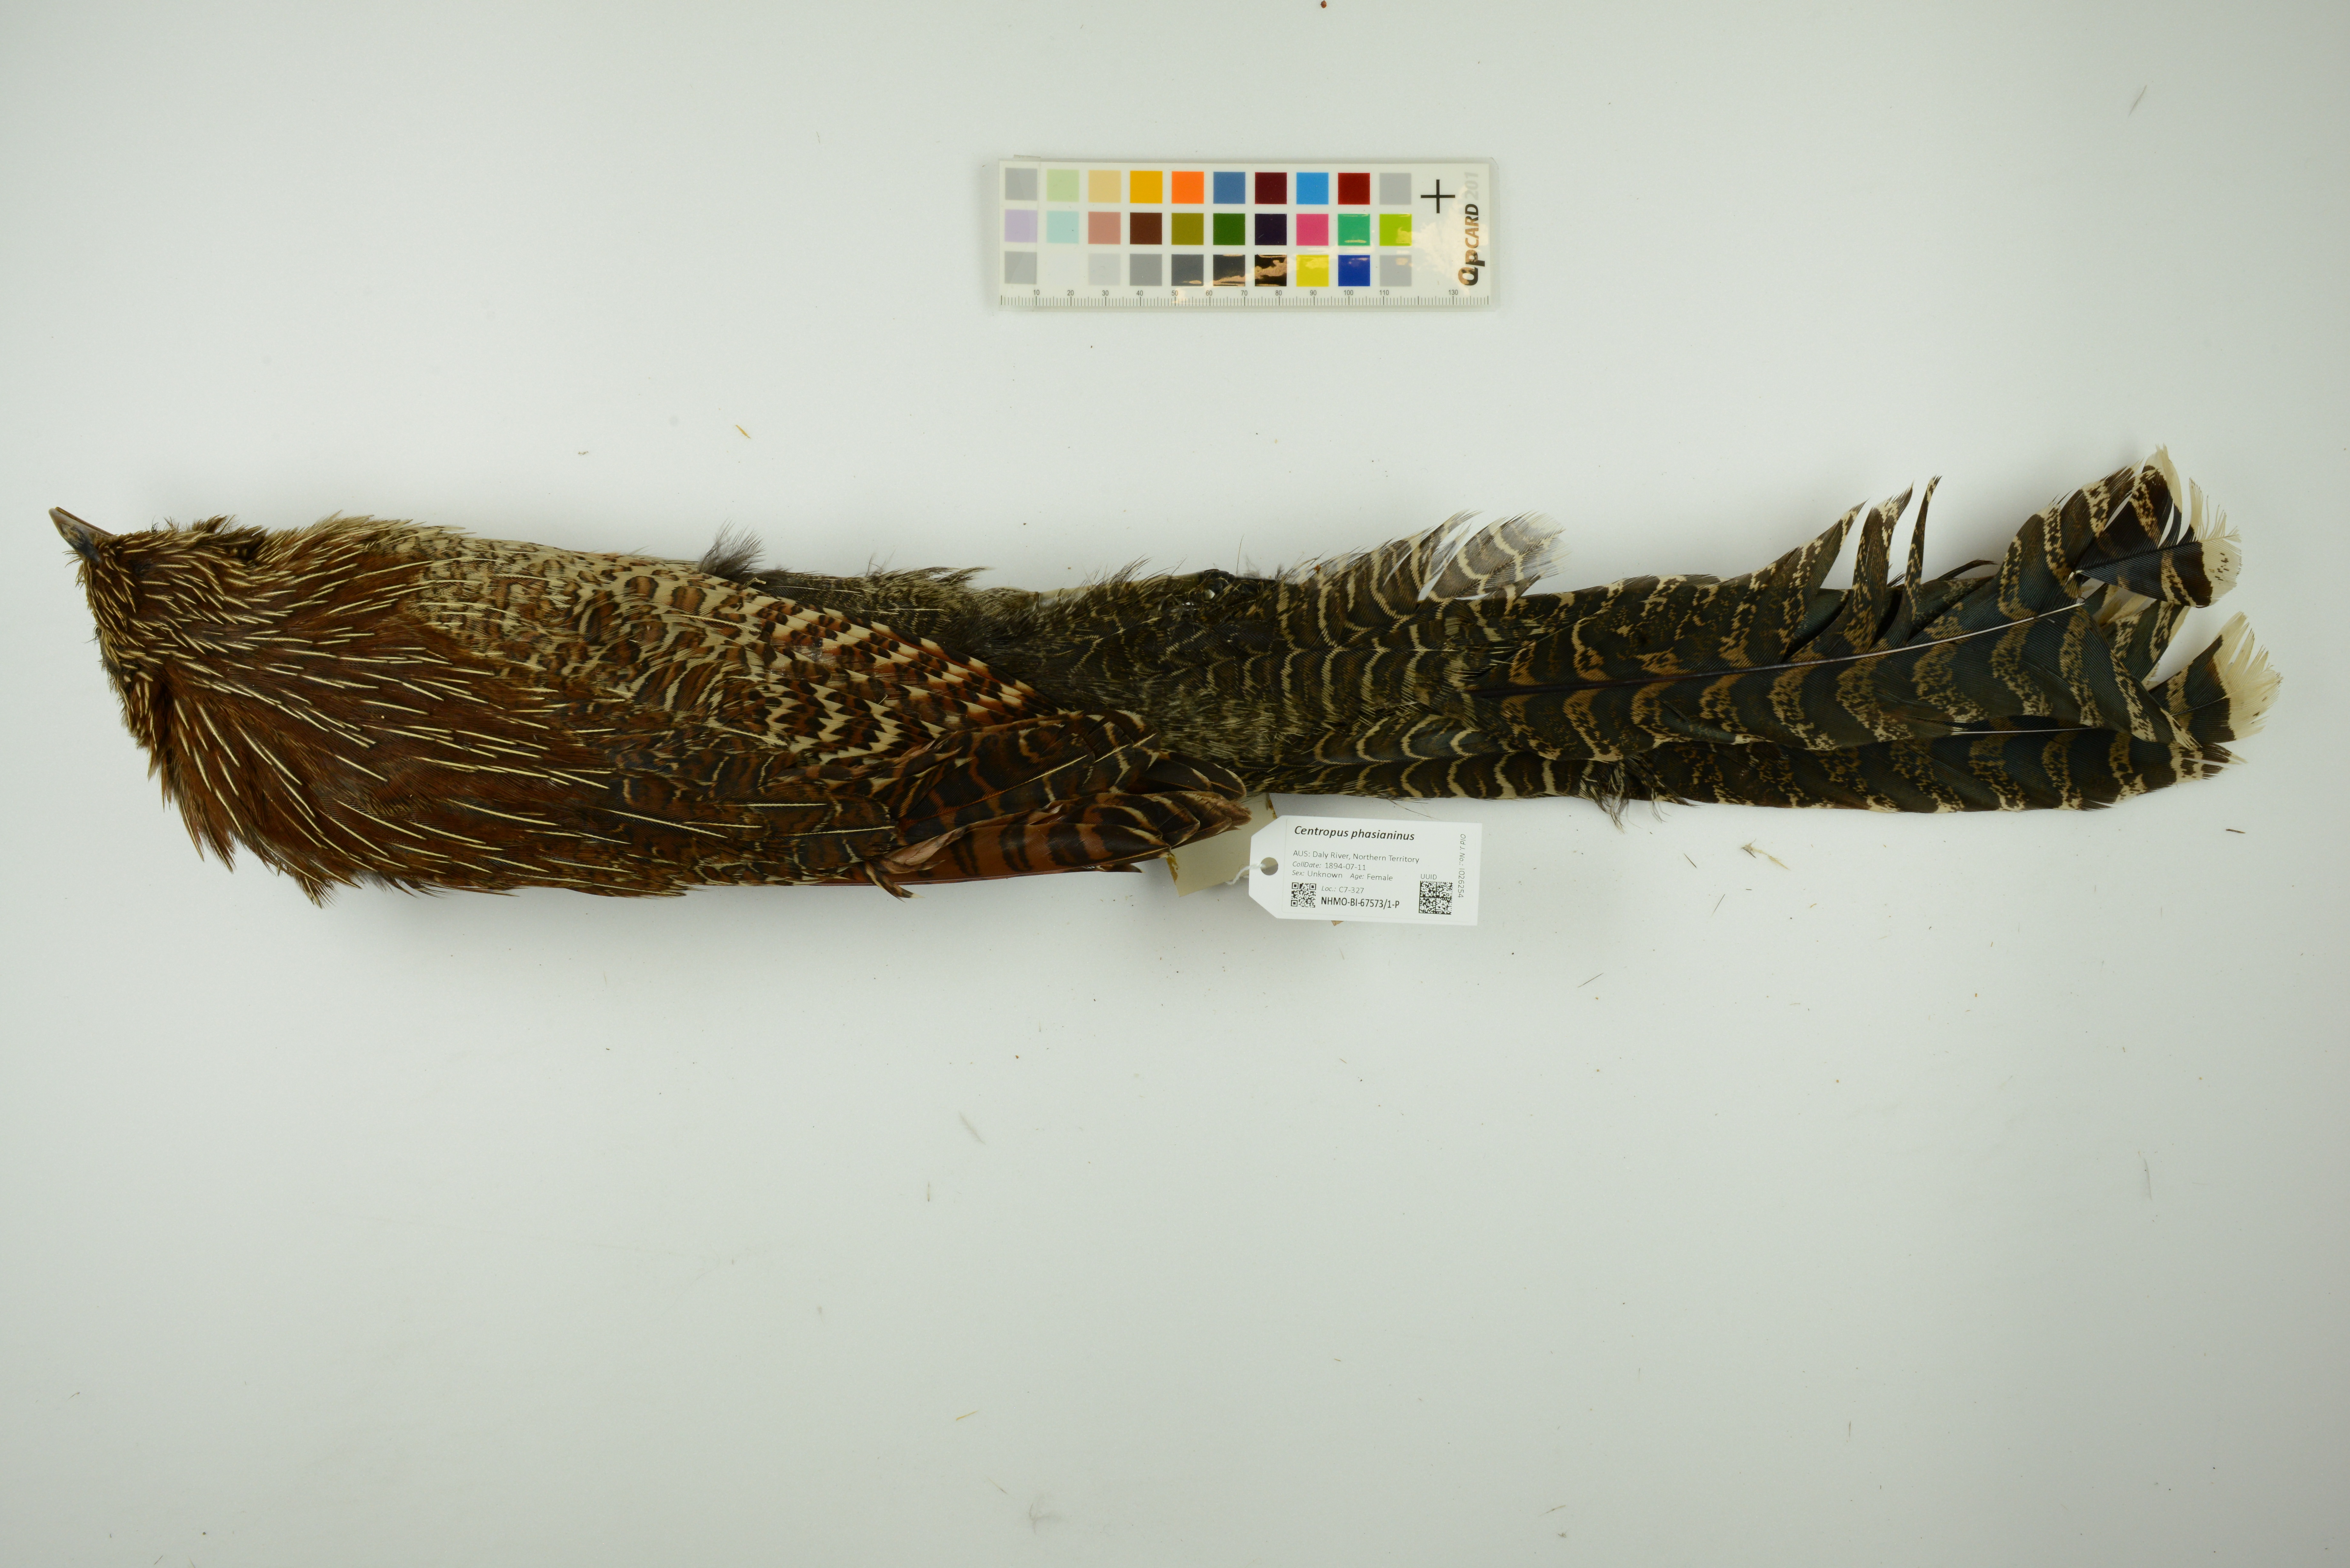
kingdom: Animalia
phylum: Chordata
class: Aves
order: Cuculiformes
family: Cuculidae
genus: Centropus
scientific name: Centropus phasianinus
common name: Pheasant coucal
